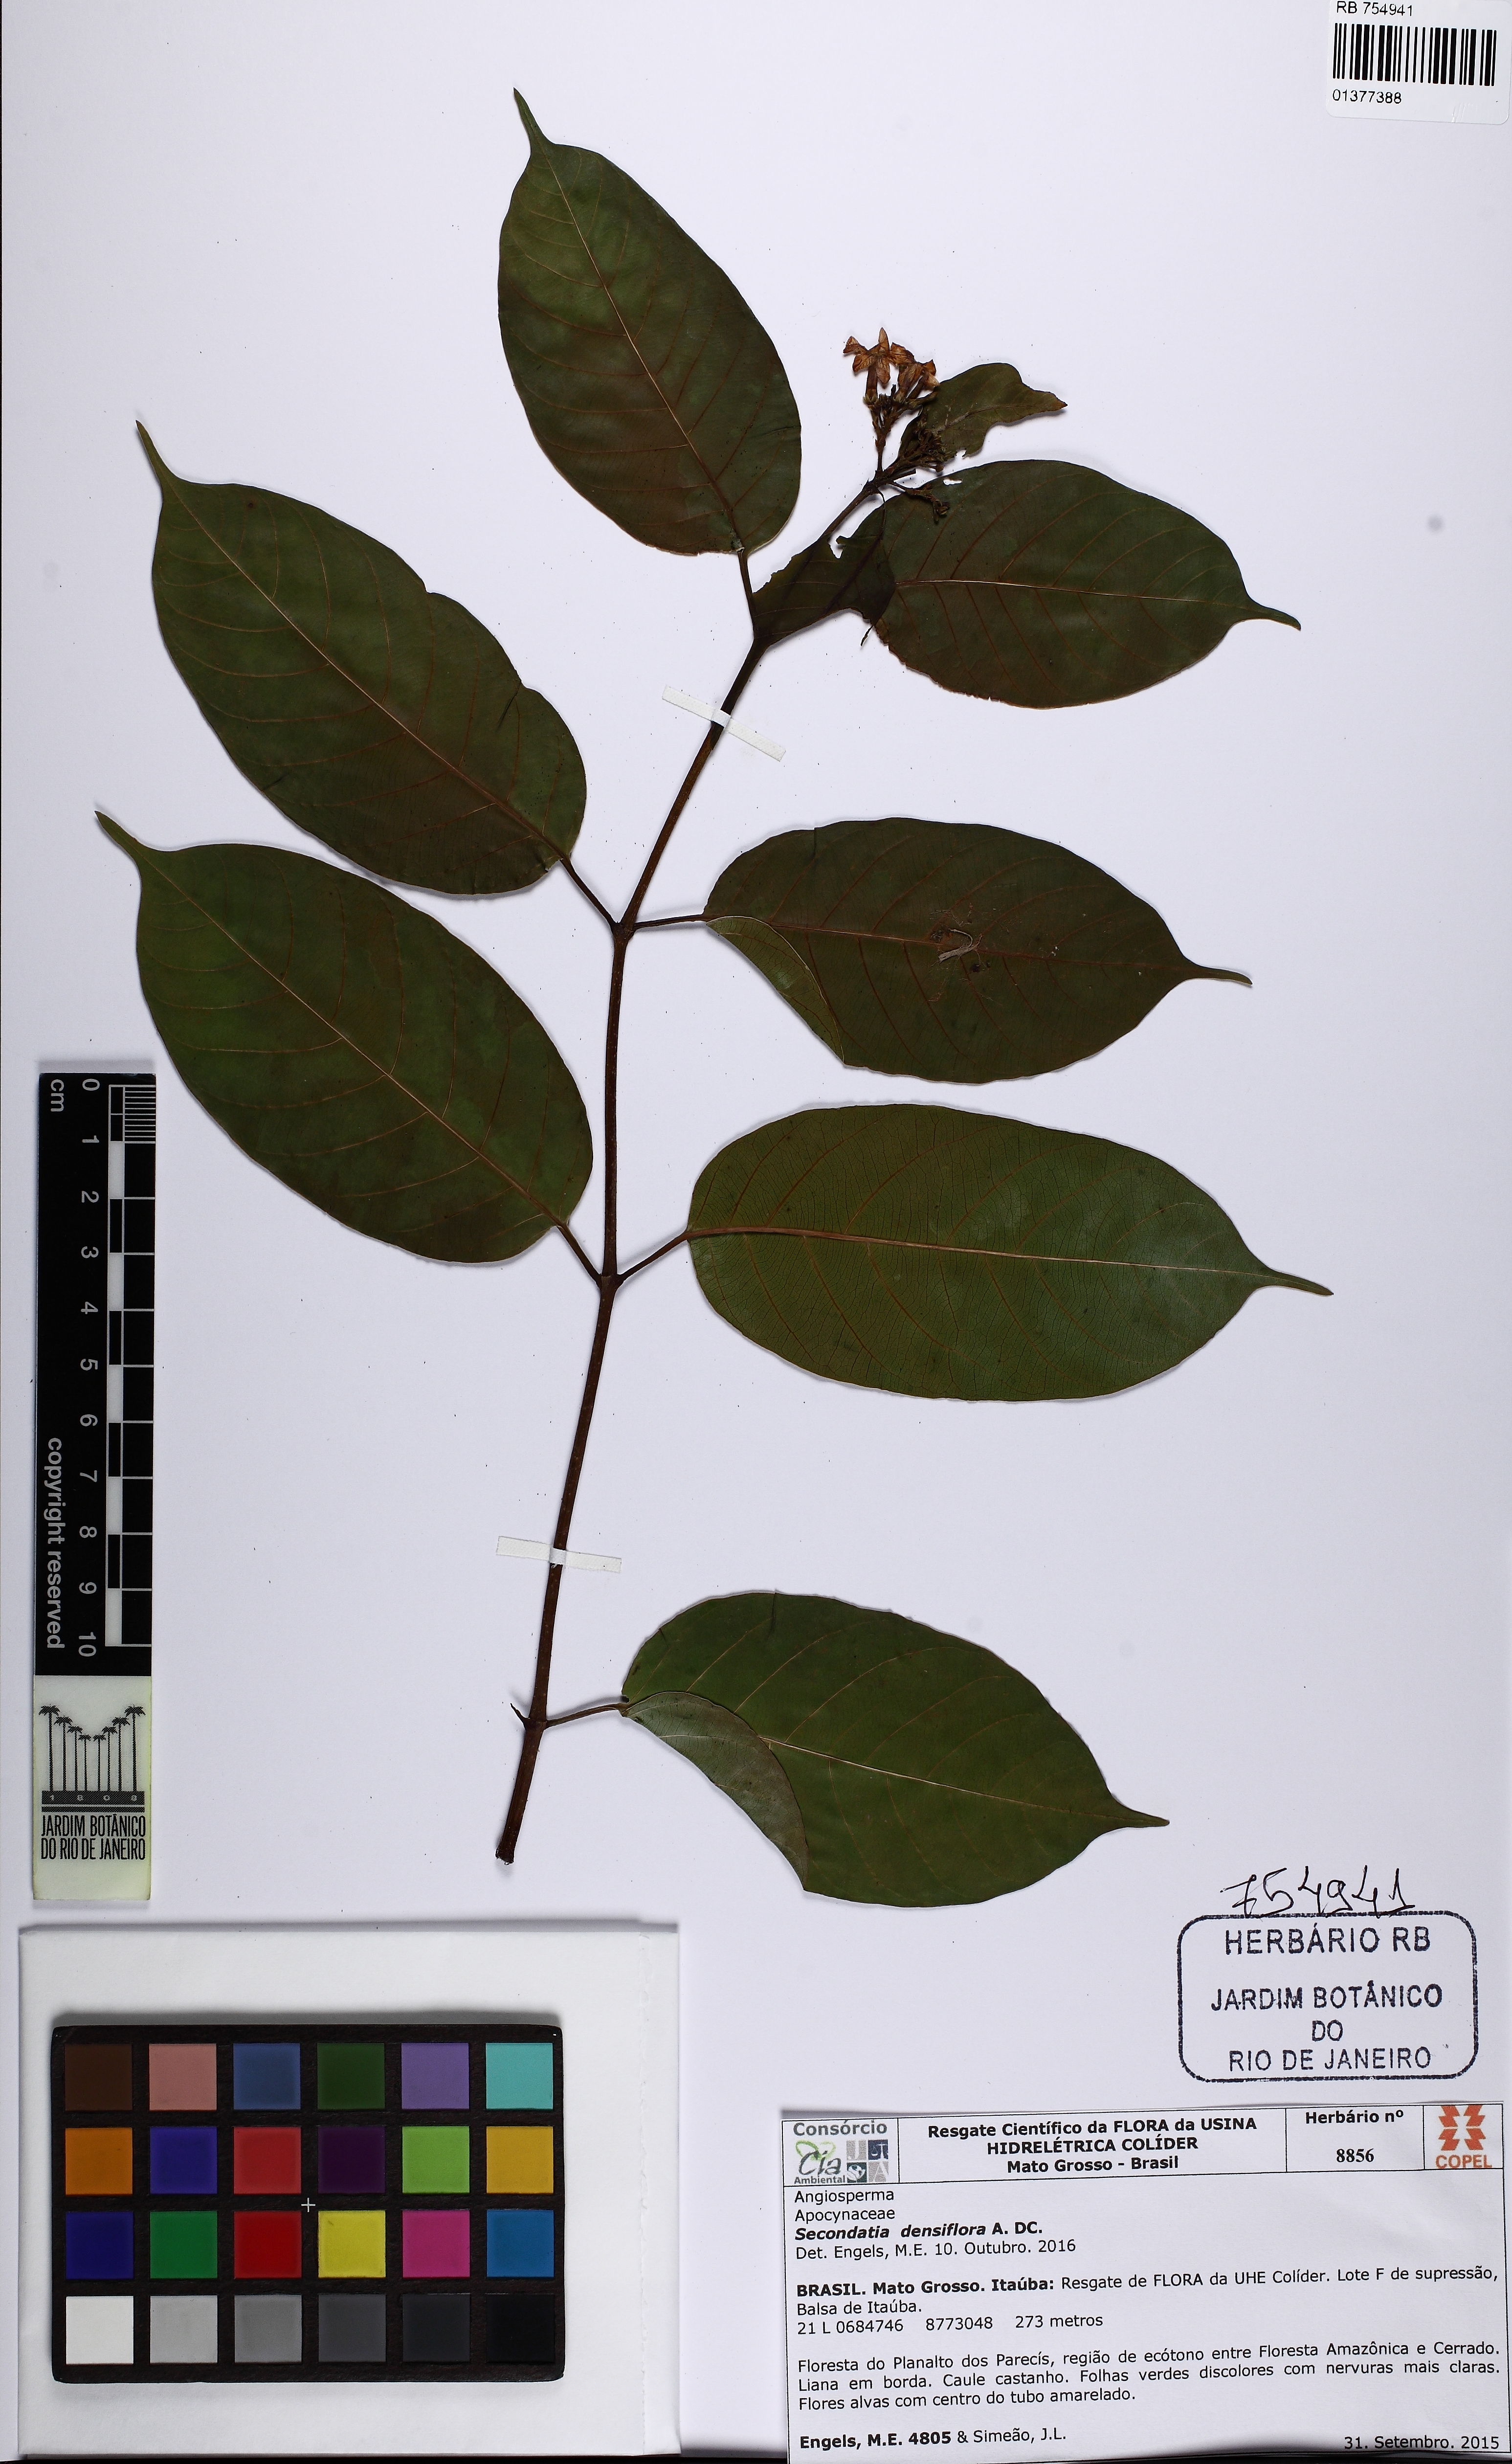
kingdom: Plantae
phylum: Tracheophyta
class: Magnoliopsida
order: Gentianales
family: Apocynaceae
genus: Secondatia
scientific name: Secondatia densiflora
